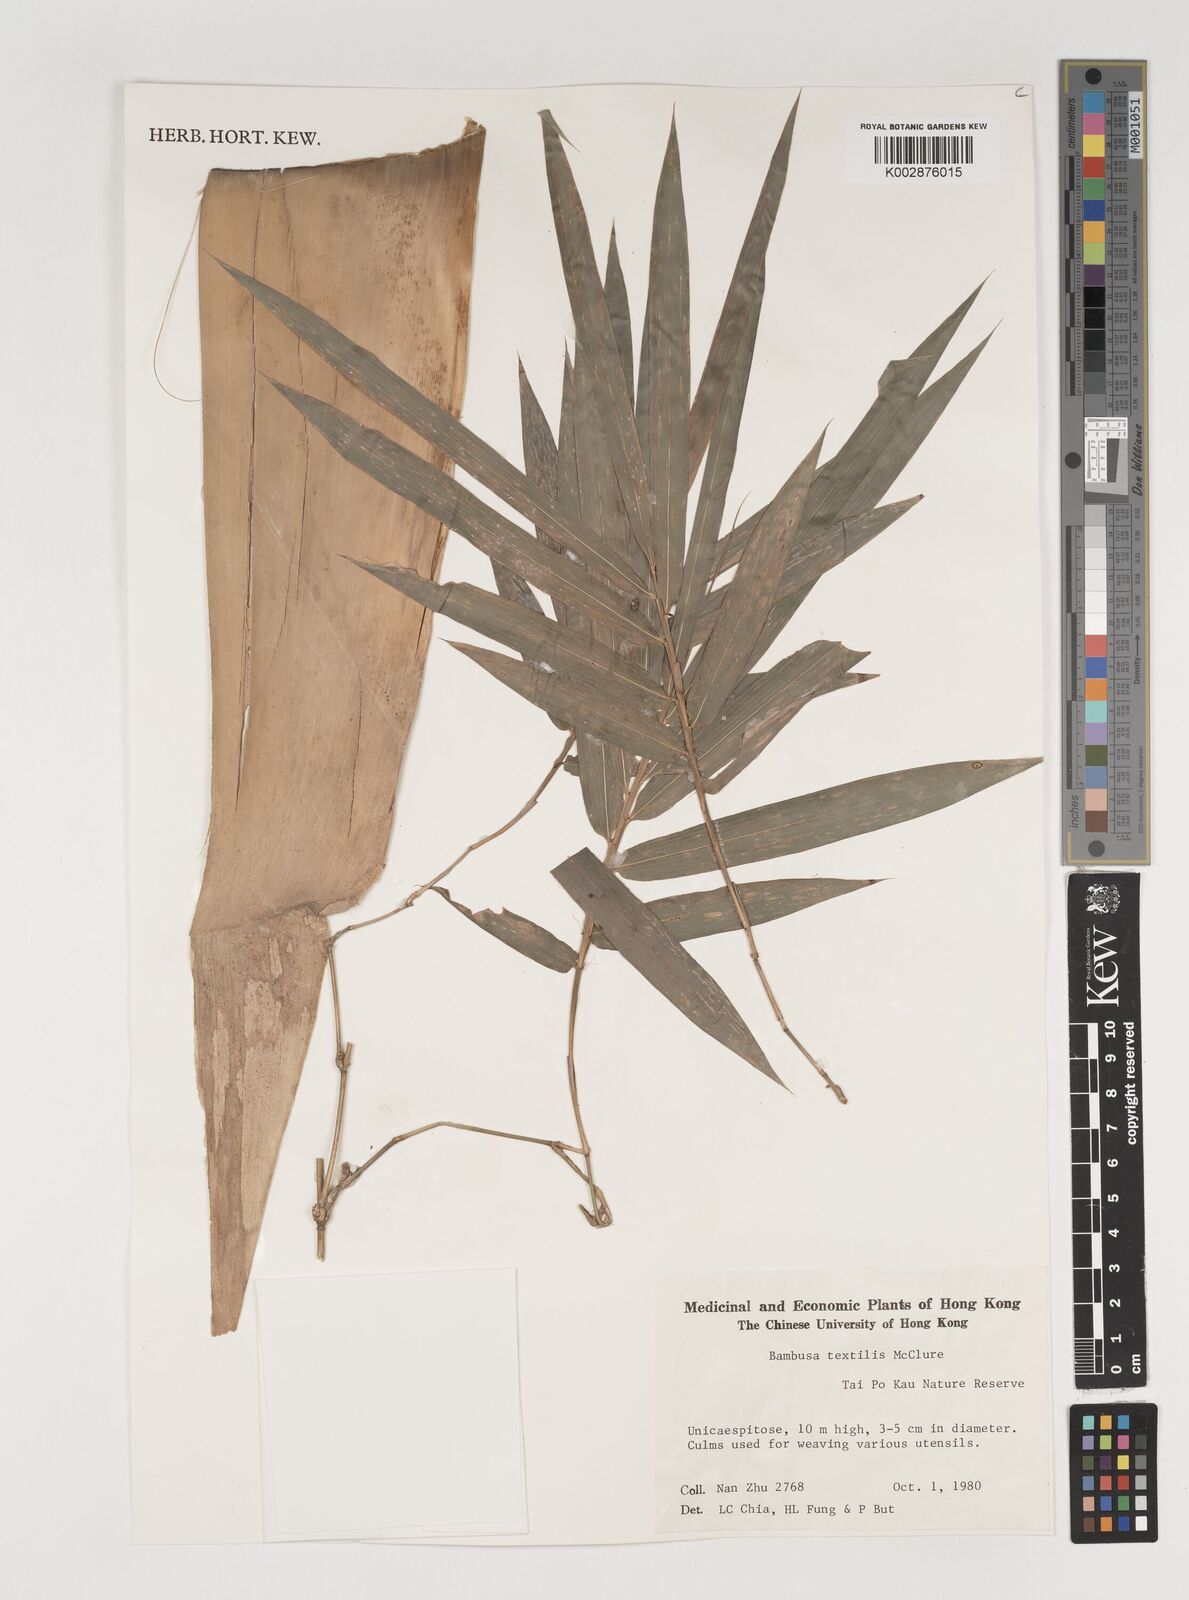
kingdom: Plantae
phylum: Tracheophyta
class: Liliopsida
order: Poales
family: Poaceae
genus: Bambusa
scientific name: Bambusa textilis
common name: Weaver's bamboo
